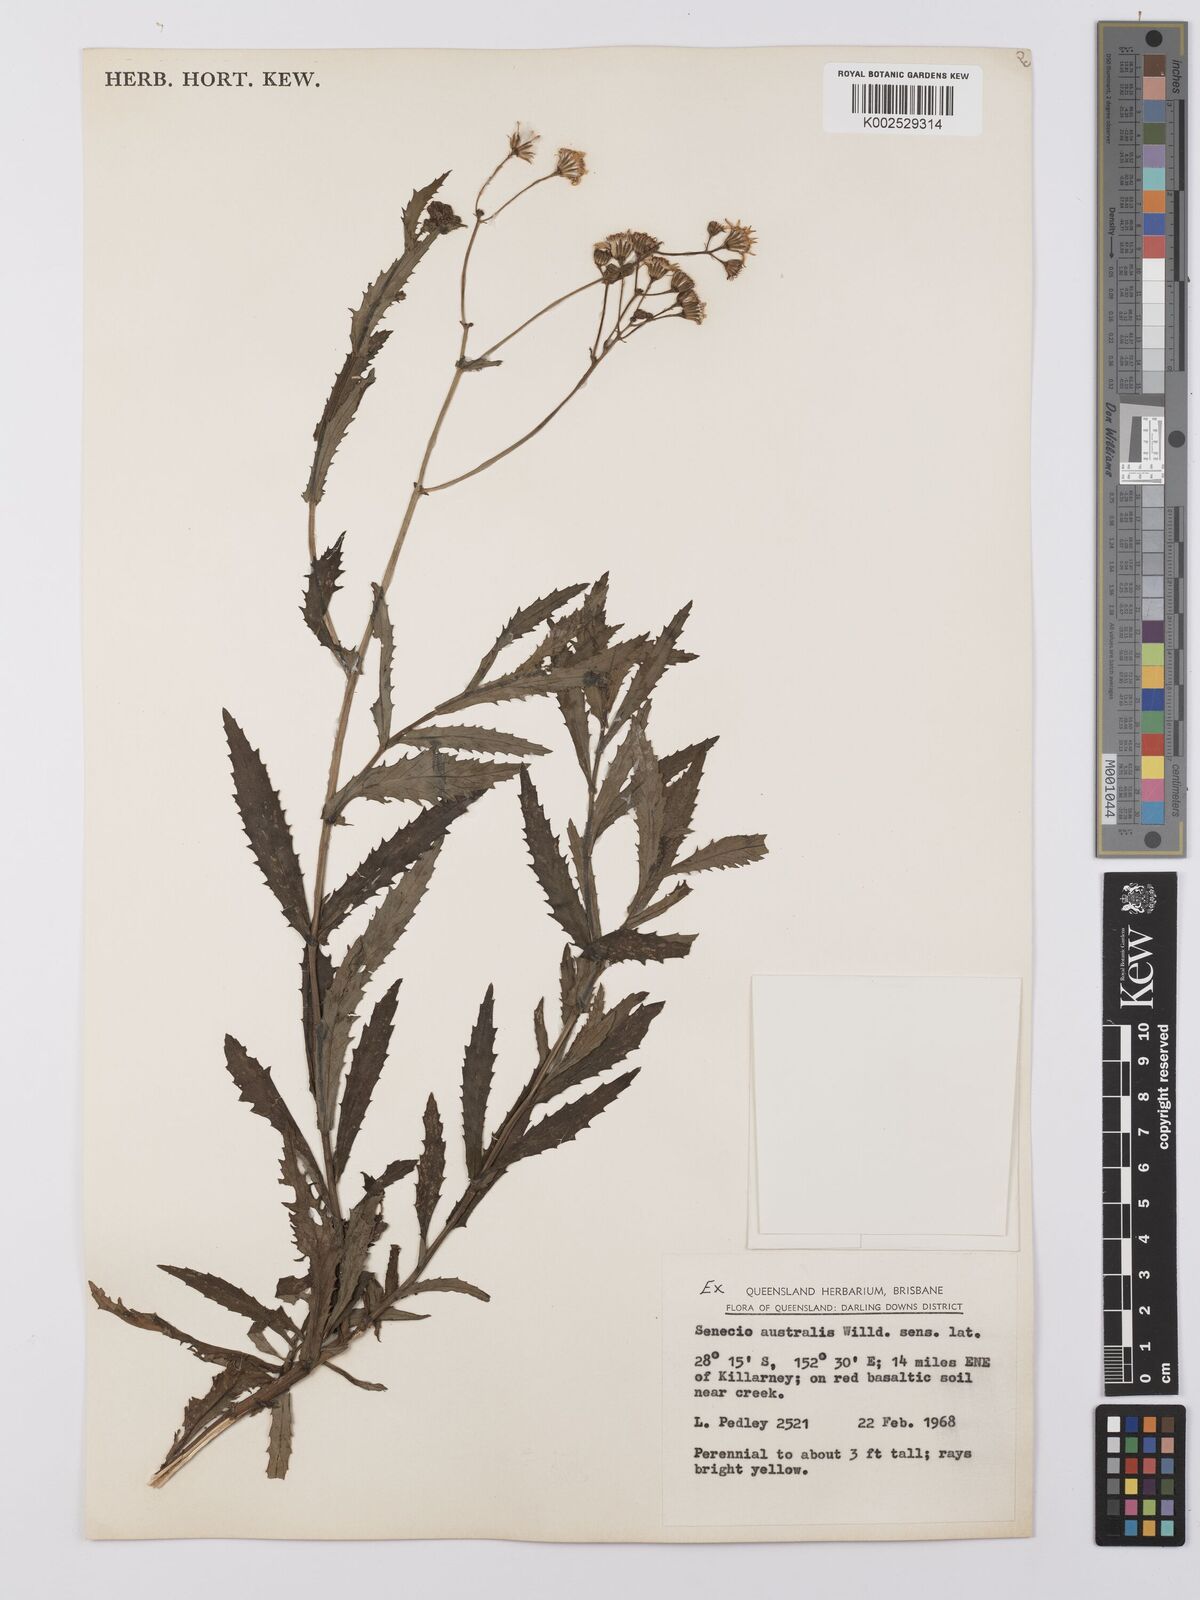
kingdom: Plantae
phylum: Tracheophyta
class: Magnoliopsida
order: Asterales
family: Asteraceae
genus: Senecio
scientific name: Senecio linearifolius
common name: Fireweed groundsel
